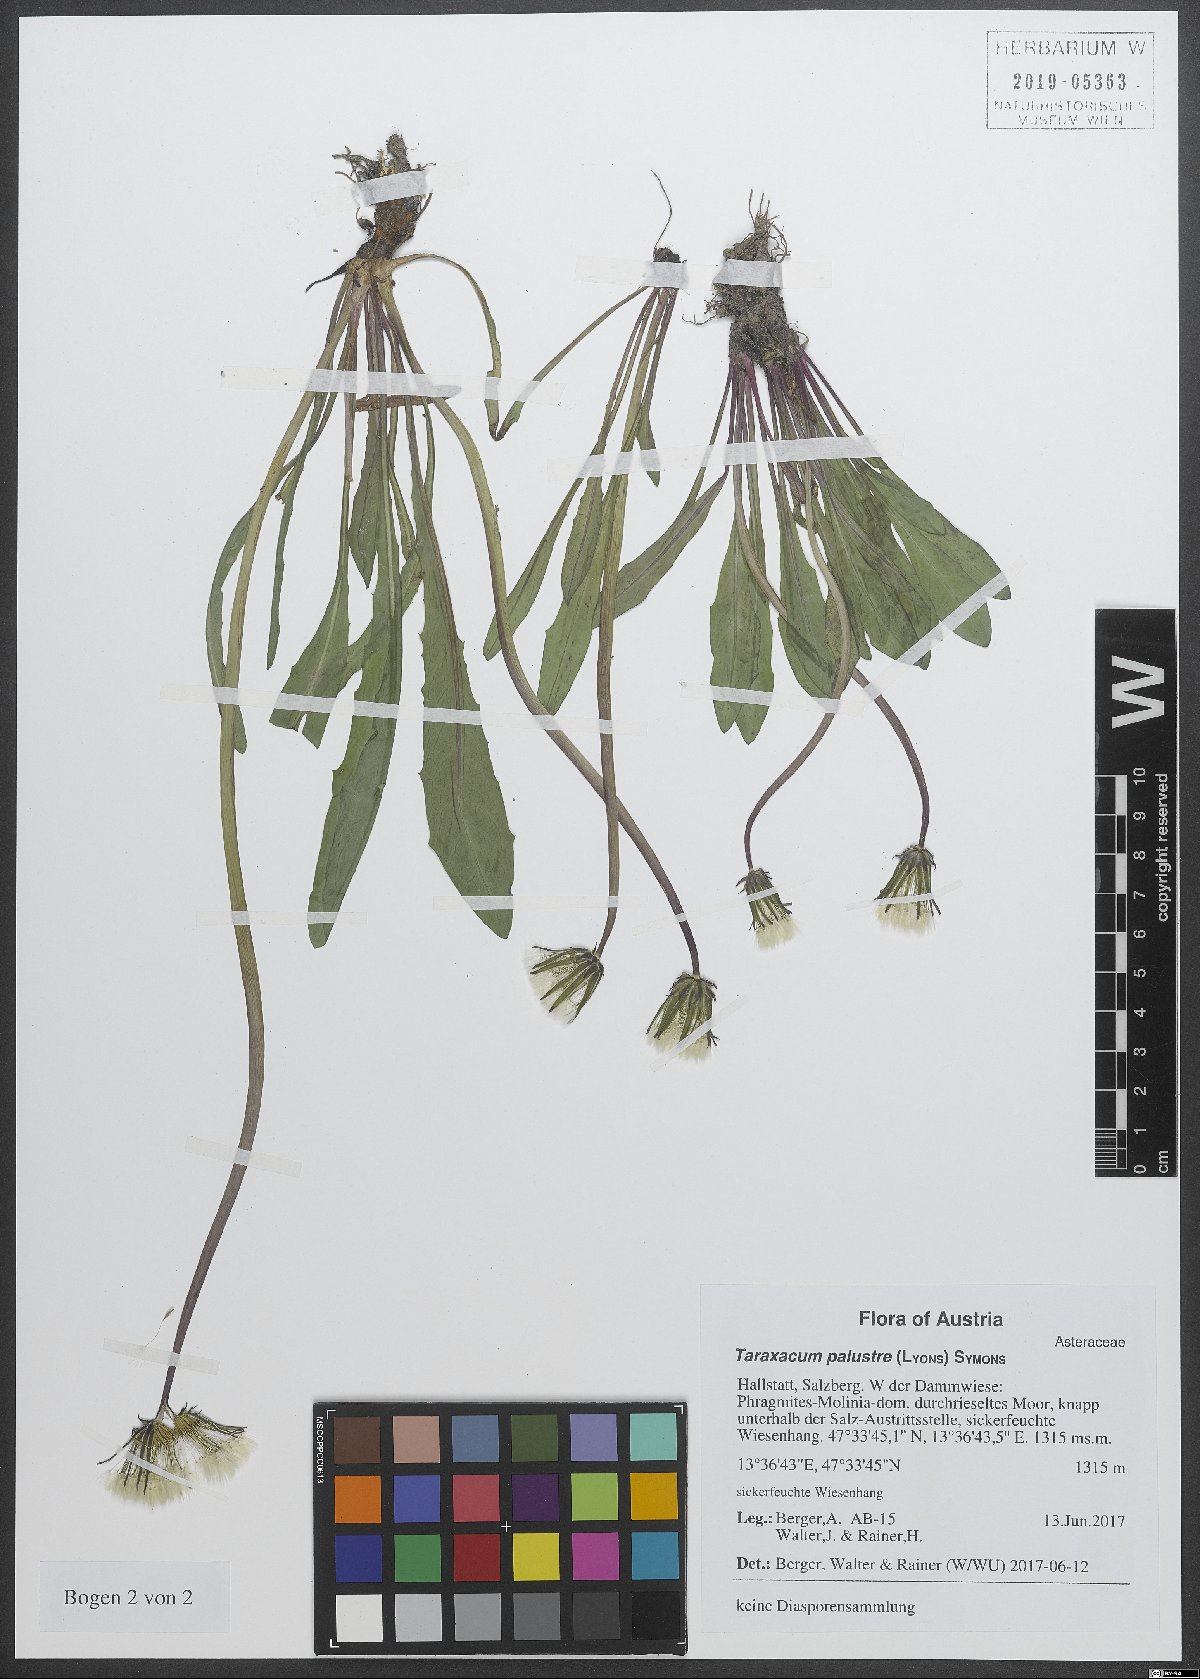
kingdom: Plantae
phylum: Tracheophyta
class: Magnoliopsida
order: Asterales
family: Asteraceae
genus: Taraxacum
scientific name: Taraxacum palustre
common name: Marsh dandelion
